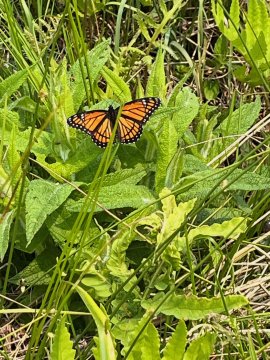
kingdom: Animalia
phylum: Arthropoda
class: Insecta
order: Lepidoptera
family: Nymphalidae
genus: Limenitis
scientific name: Limenitis archippus
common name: Viceroy
